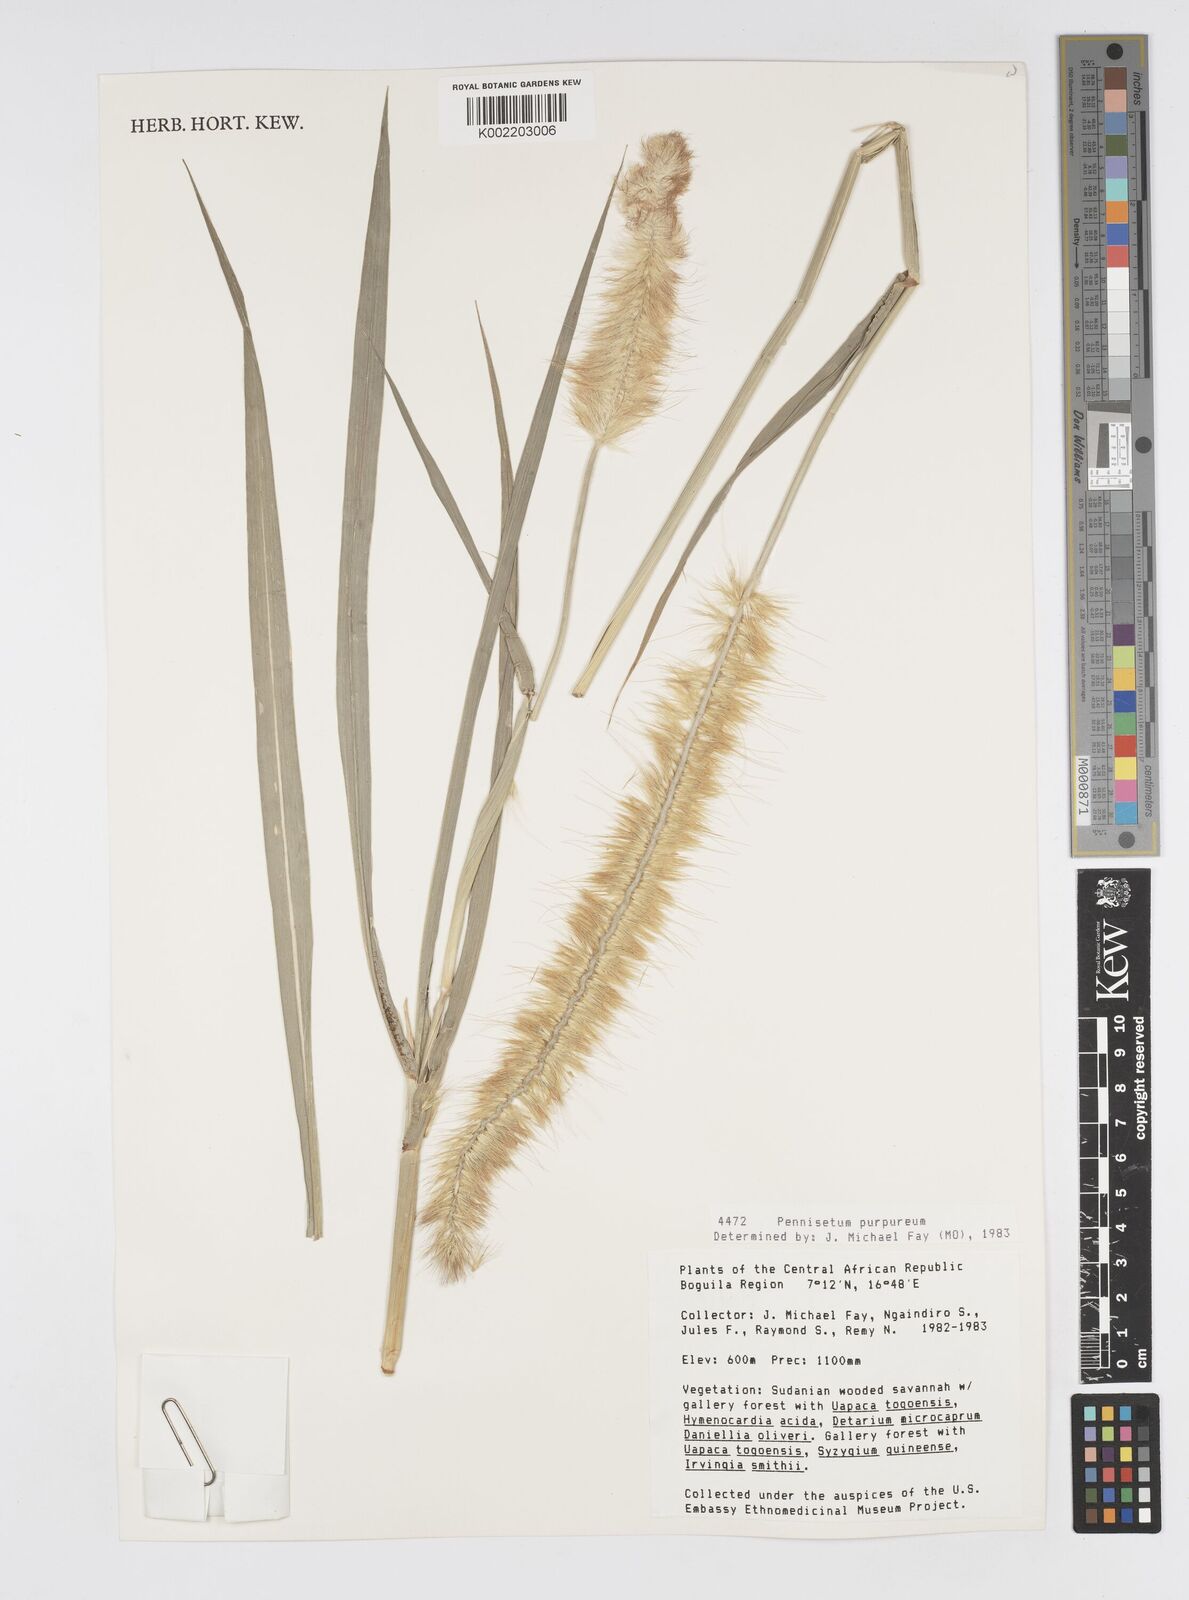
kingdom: Plantae
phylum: Tracheophyta
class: Liliopsida
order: Poales
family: Poaceae
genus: Cenchrus
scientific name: Cenchrus purpureus
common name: Elephant grass
